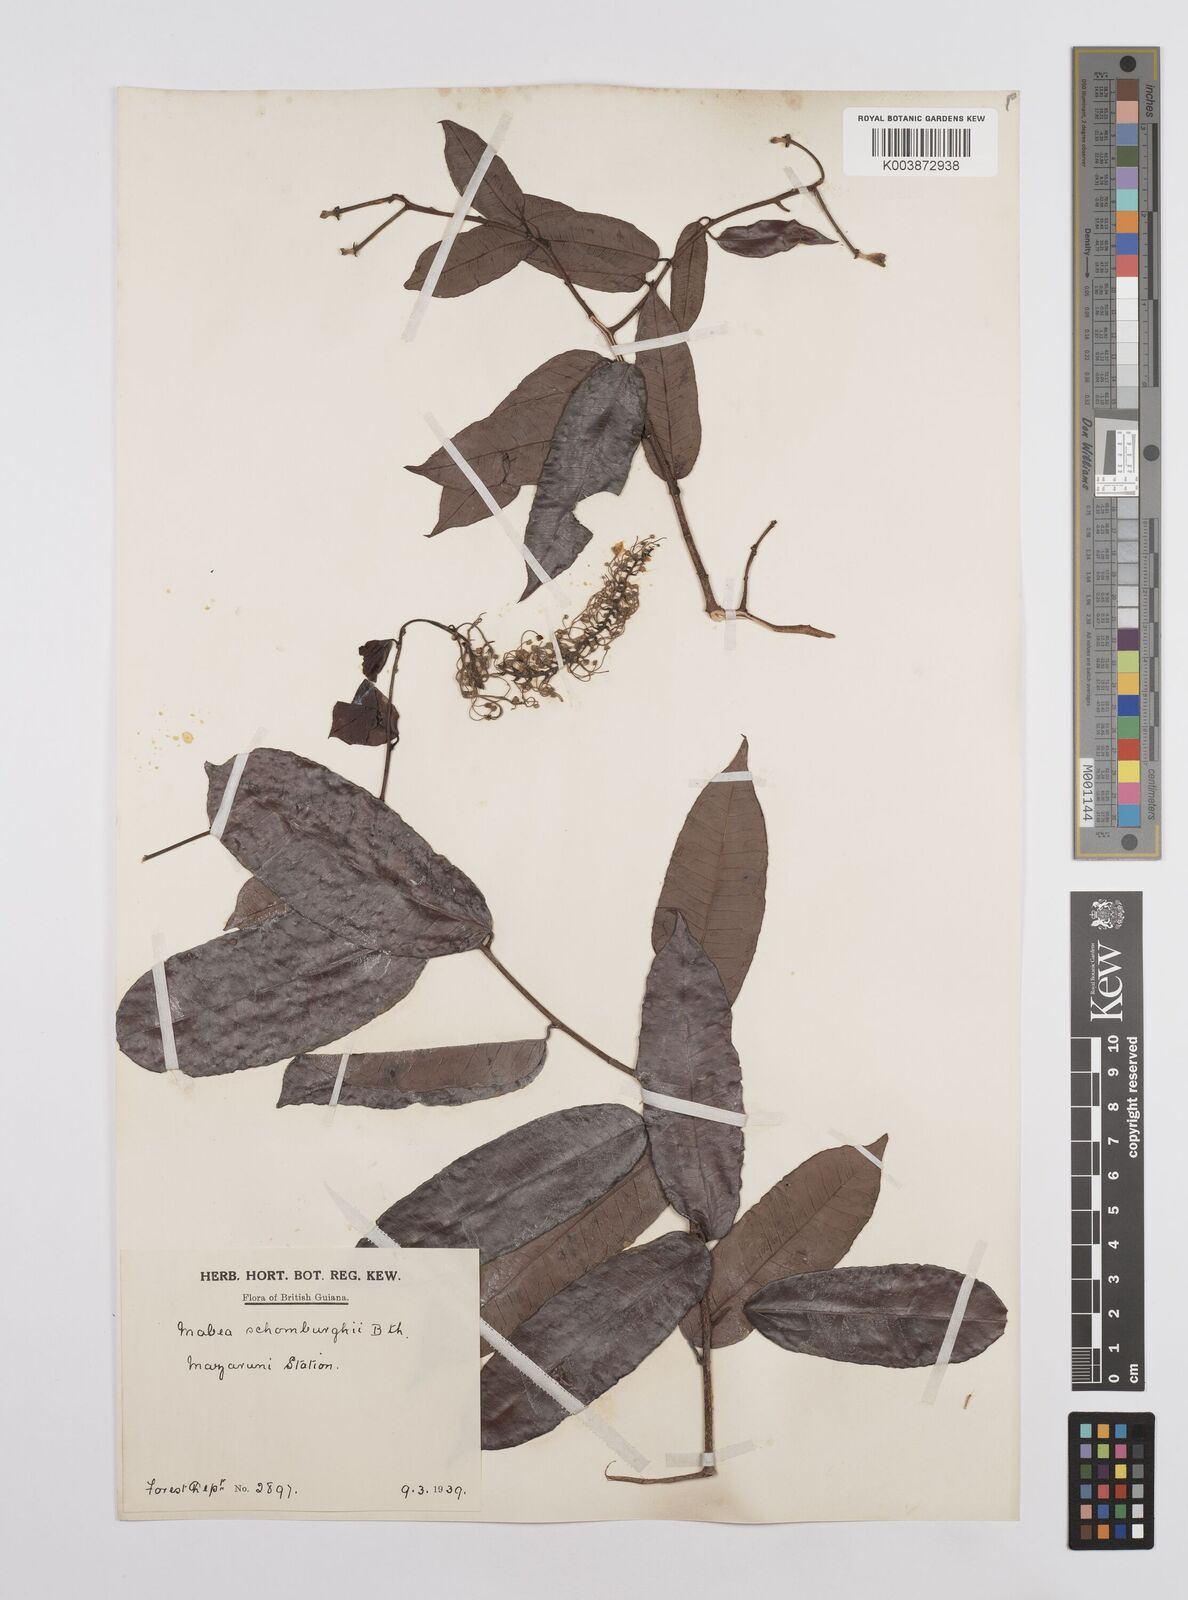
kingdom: Plantae
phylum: Tracheophyta
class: Magnoliopsida
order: Malpighiales
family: Euphorbiaceae
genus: Mabea
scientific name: Mabea taquari
